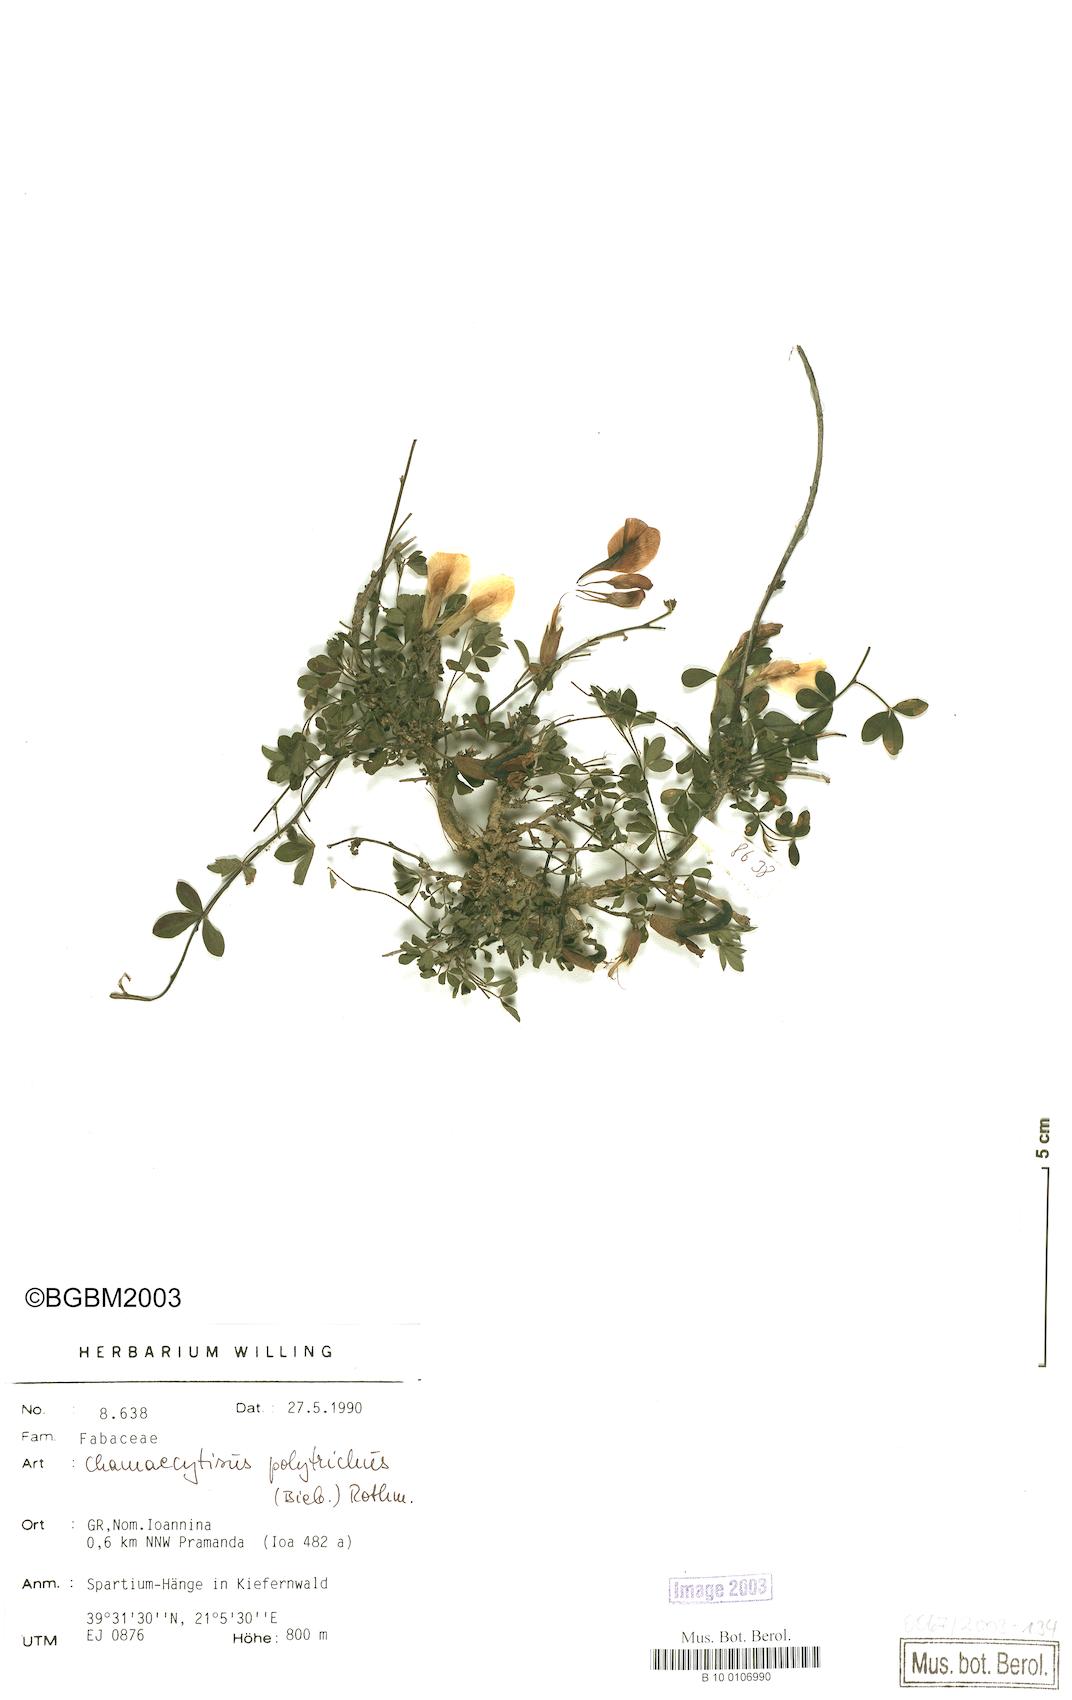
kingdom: Plantae
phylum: Tracheophyta
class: Magnoliopsida
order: Fabales
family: Fabaceae
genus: Chamaecytisus
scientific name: Chamaecytisus hirsutus
